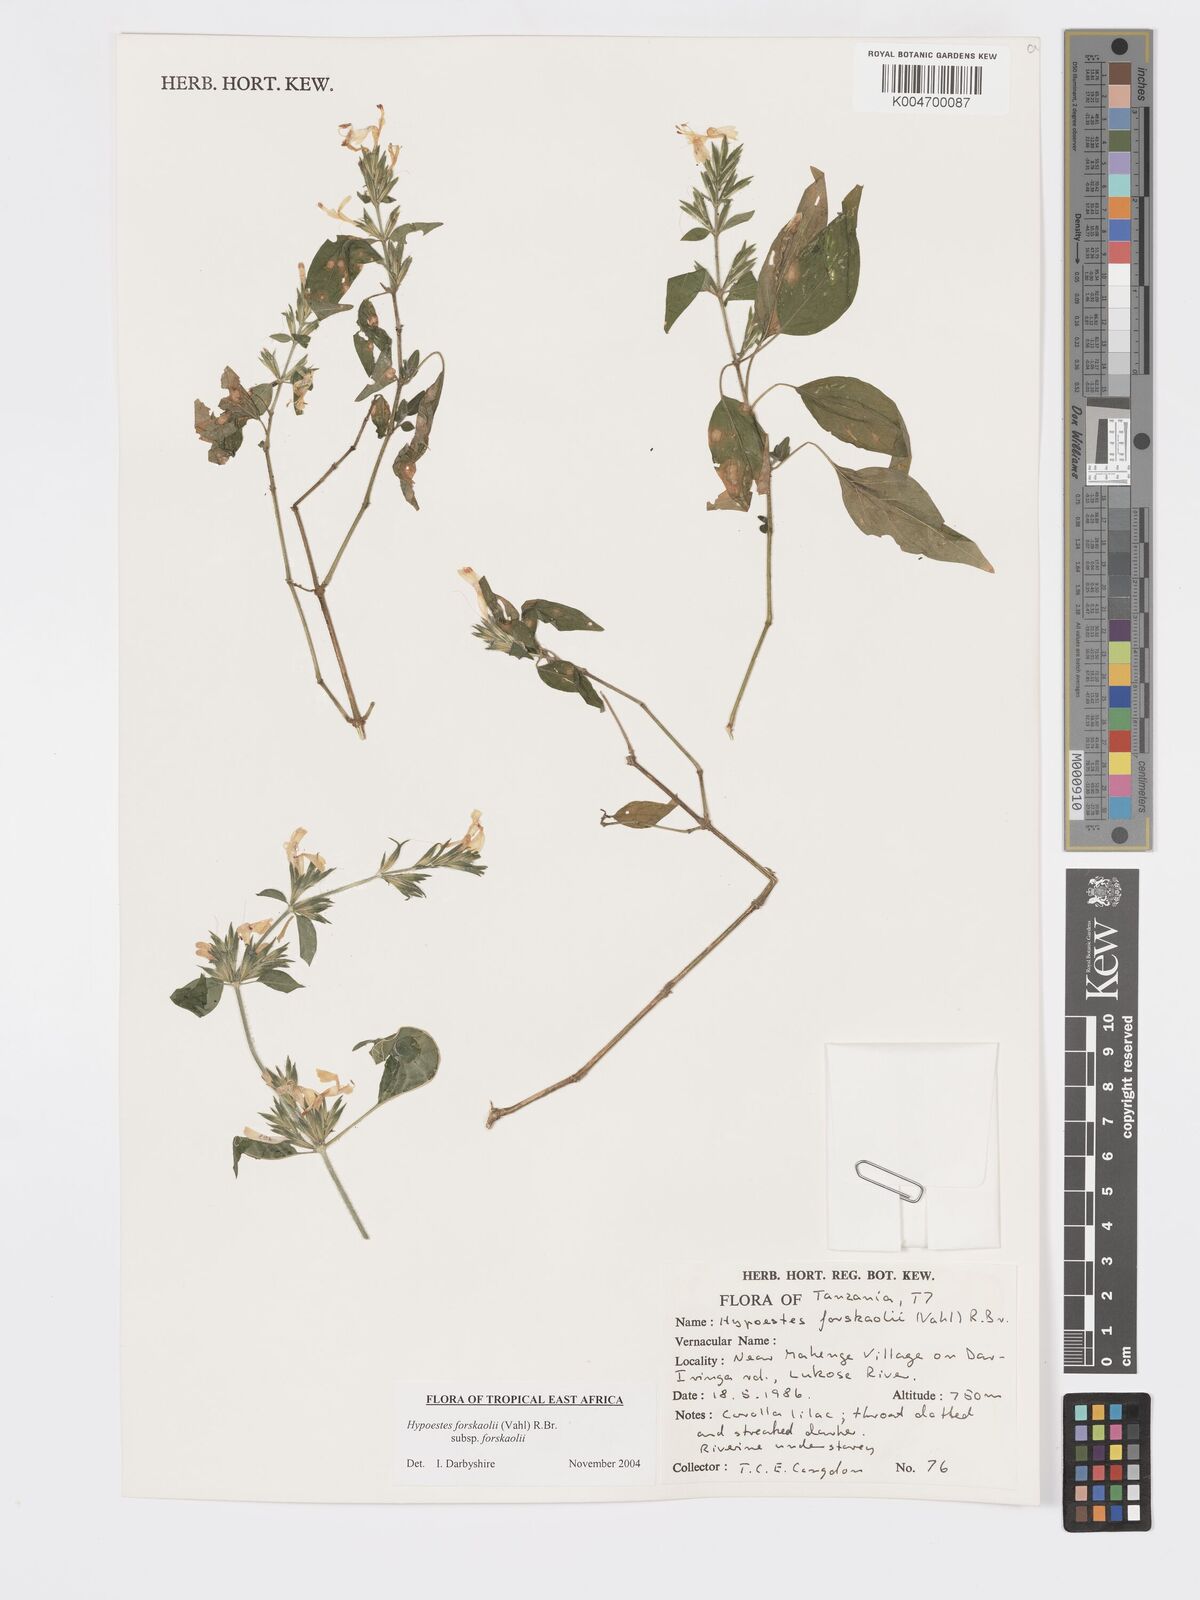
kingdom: Plantae
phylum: Tracheophyta
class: Magnoliopsida
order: Lamiales
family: Acanthaceae
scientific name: Acanthaceae
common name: Acanthaceae
